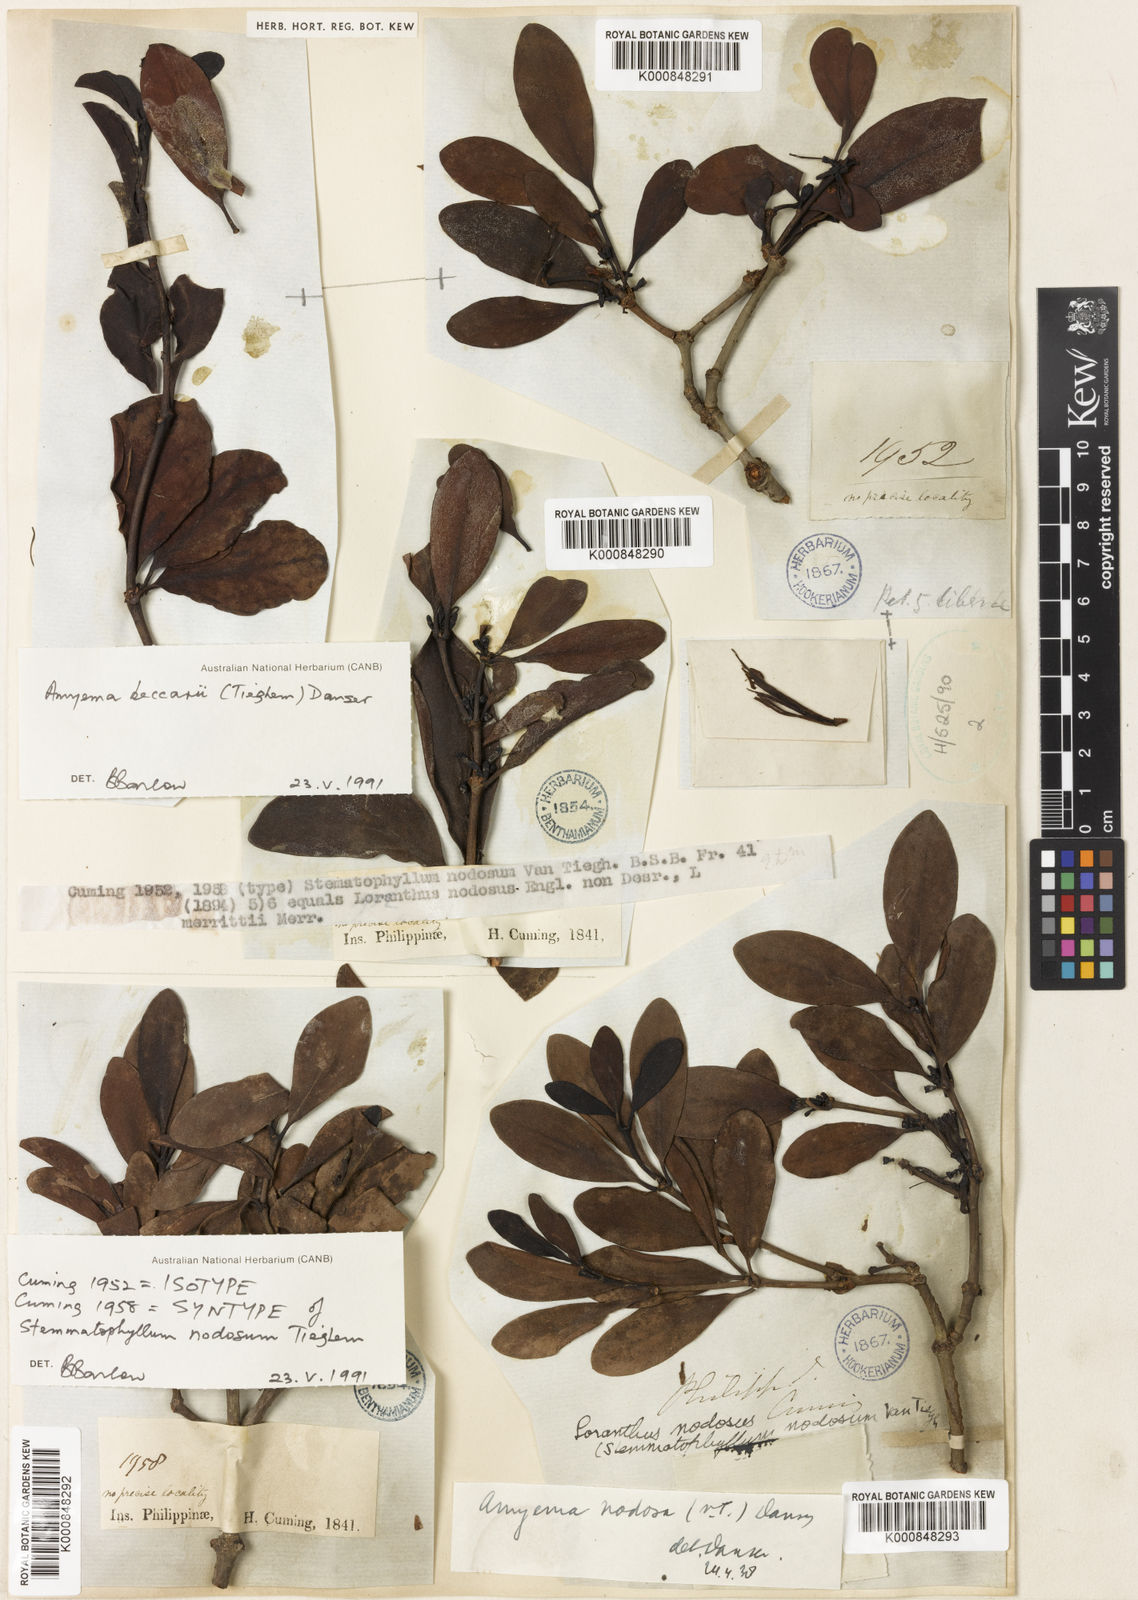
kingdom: Plantae
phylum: Tracheophyta
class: Magnoliopsida
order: Santalales
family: Loranthaceae
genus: Amyema
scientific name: Amyema beccarii
